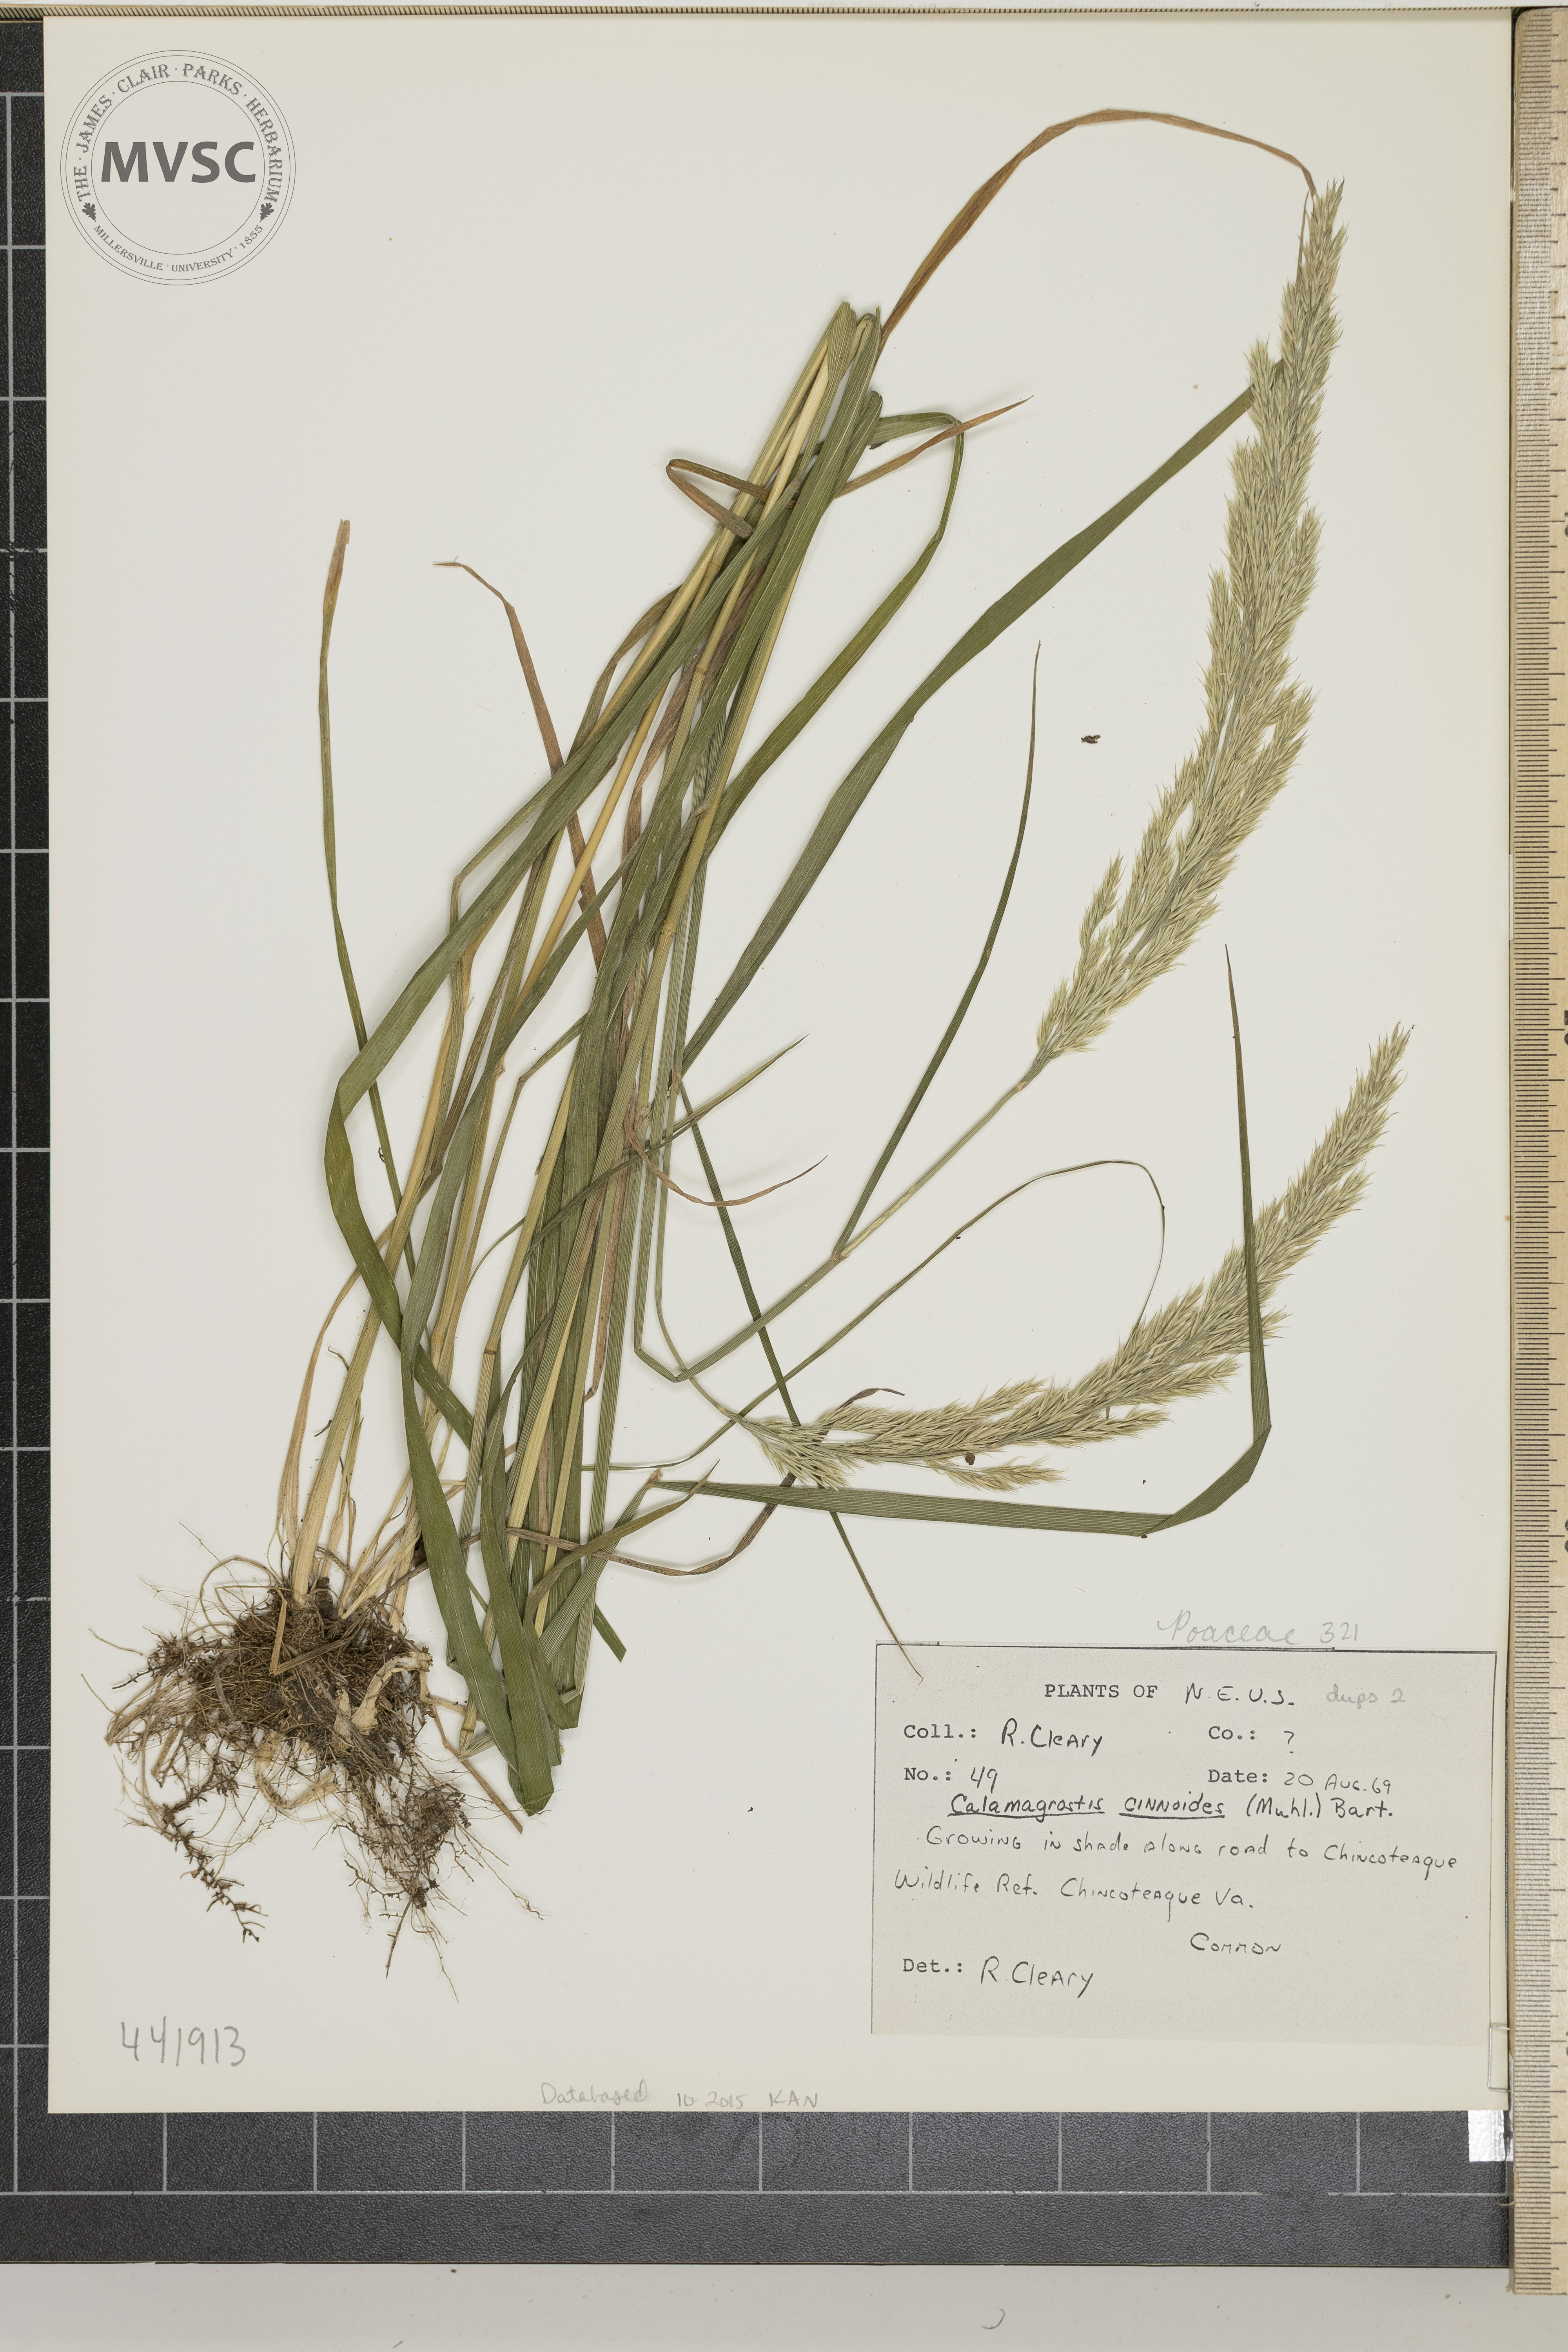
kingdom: Plantae
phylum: Tracheophyta
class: Liliopsida
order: Poales
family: Poaceae
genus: Calamagrostis
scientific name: Calamagrostis canadensis
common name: Canada bluejoint
